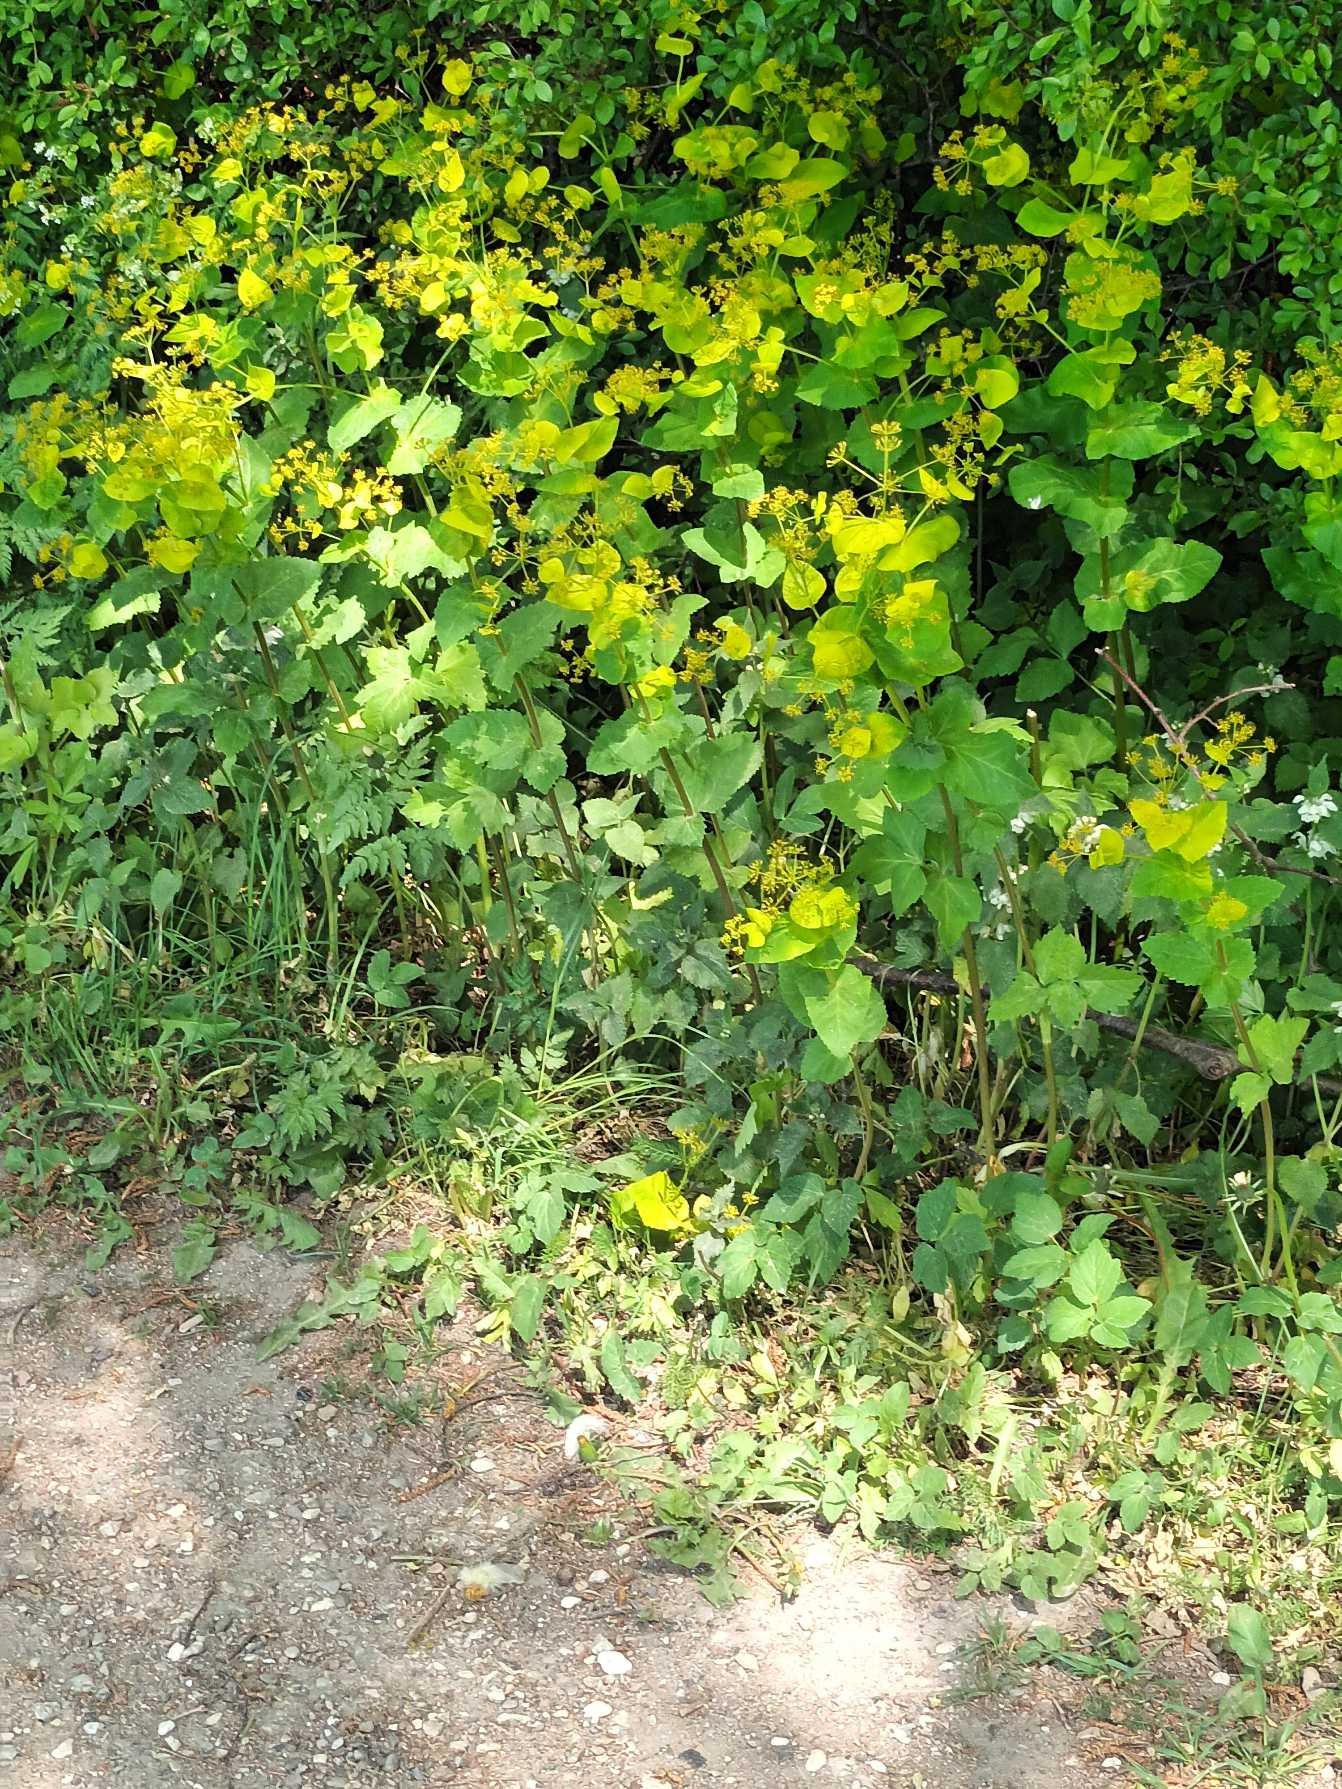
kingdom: Plantae
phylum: Tracheophyta
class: Magnoliopsida
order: Apiales
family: Apiaceae
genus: Smyrnium
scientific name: Smyrnium perfoliatum
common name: Lundgylden
